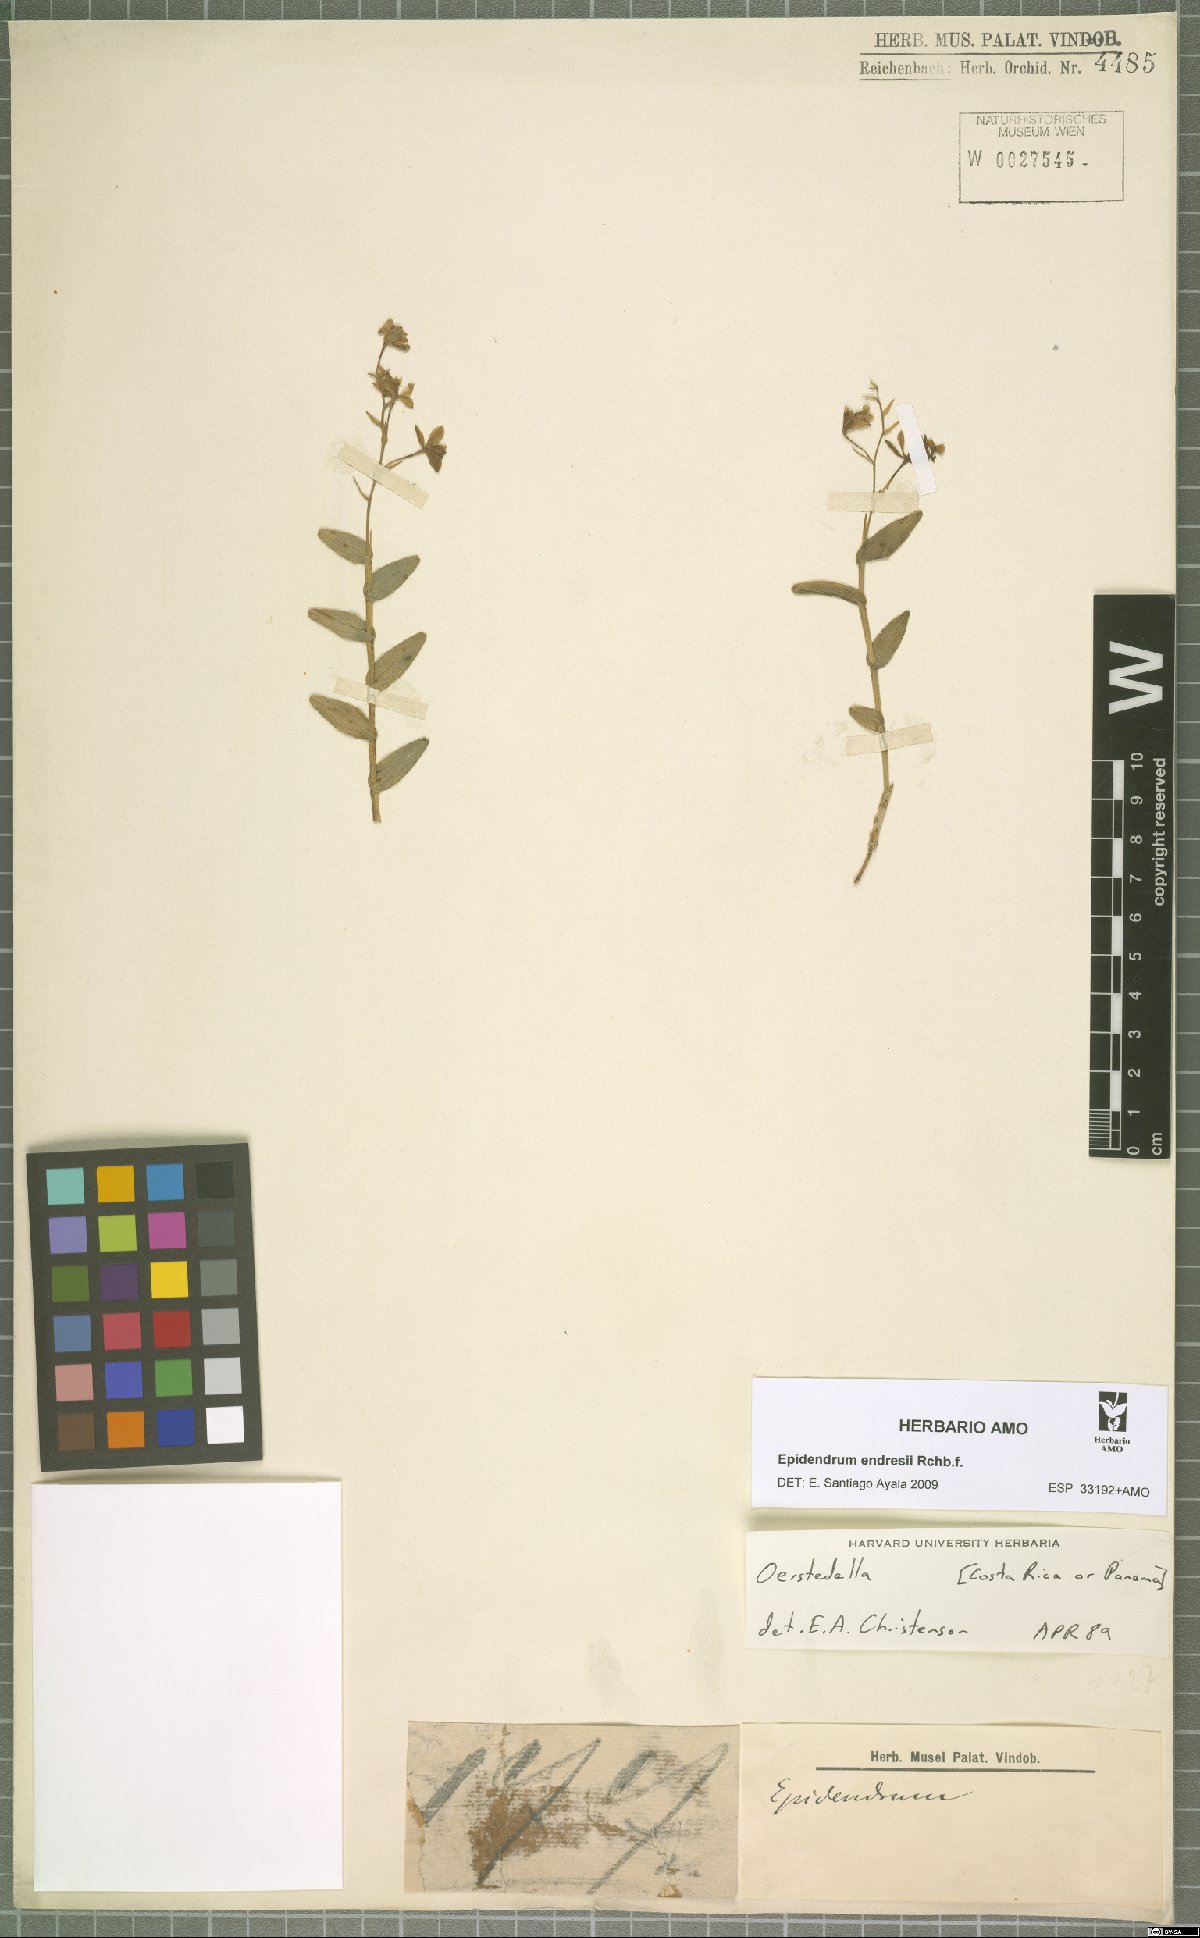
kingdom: Plantae
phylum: Tracheophyta
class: Liliopsida
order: Asparagales
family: Orchidaceae
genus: Epidendrum
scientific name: Epidendrum endresii
